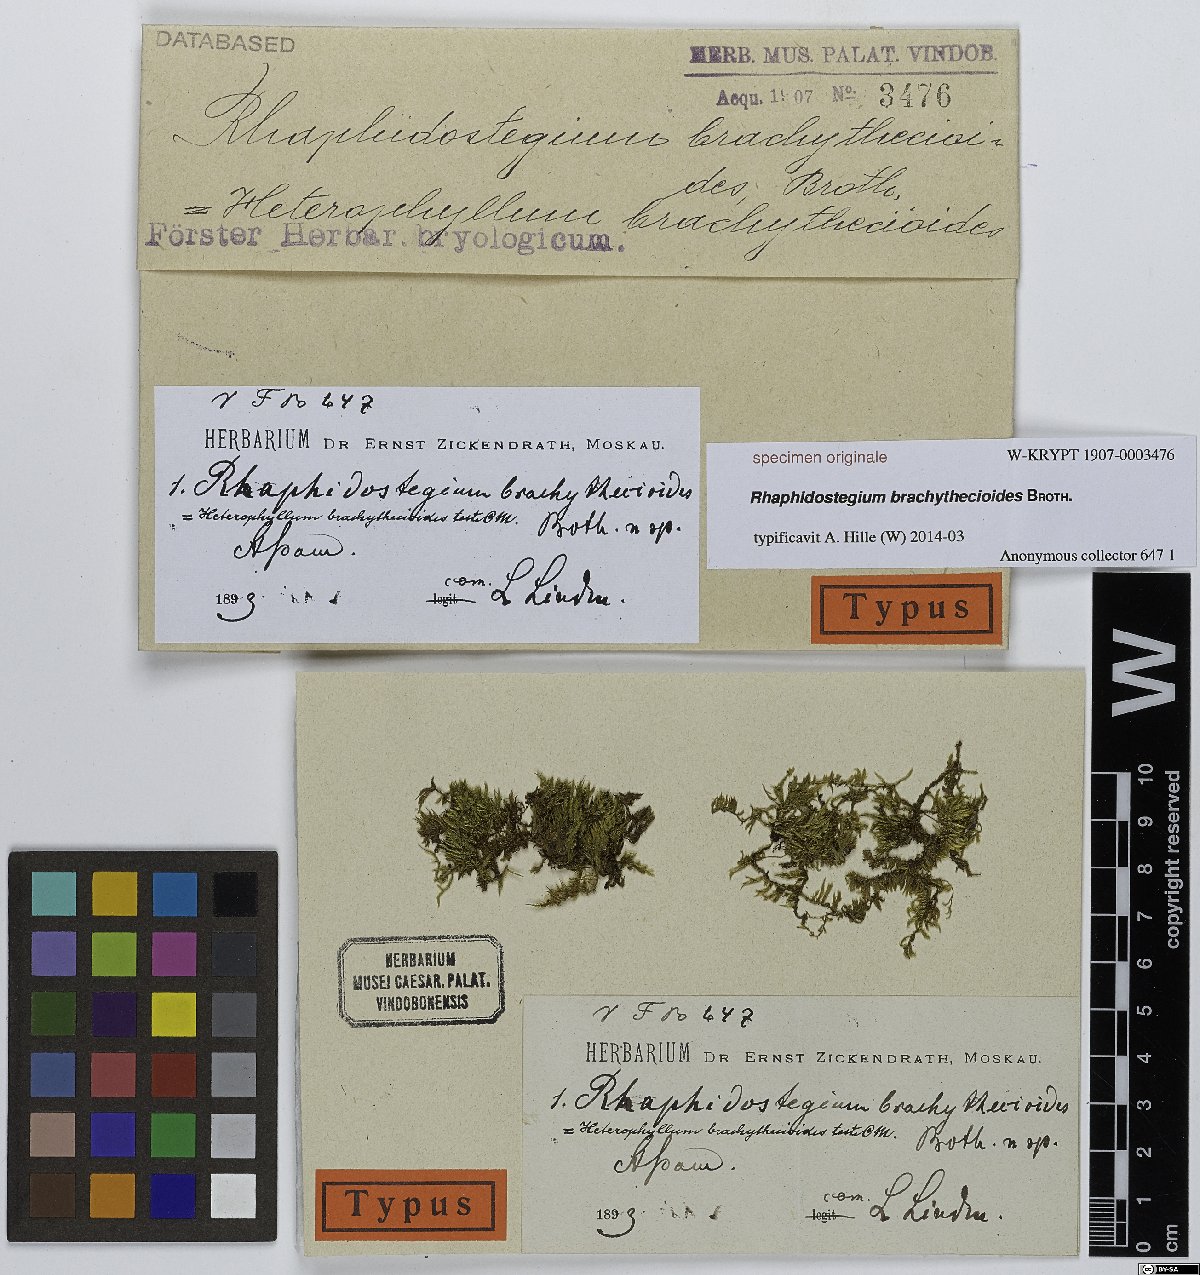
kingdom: Plantae
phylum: Bryophyta
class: Bryopsida
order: Hypnales
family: Sematophyllaceae
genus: Rhaphidostegium
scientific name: Rhaphidostegium
